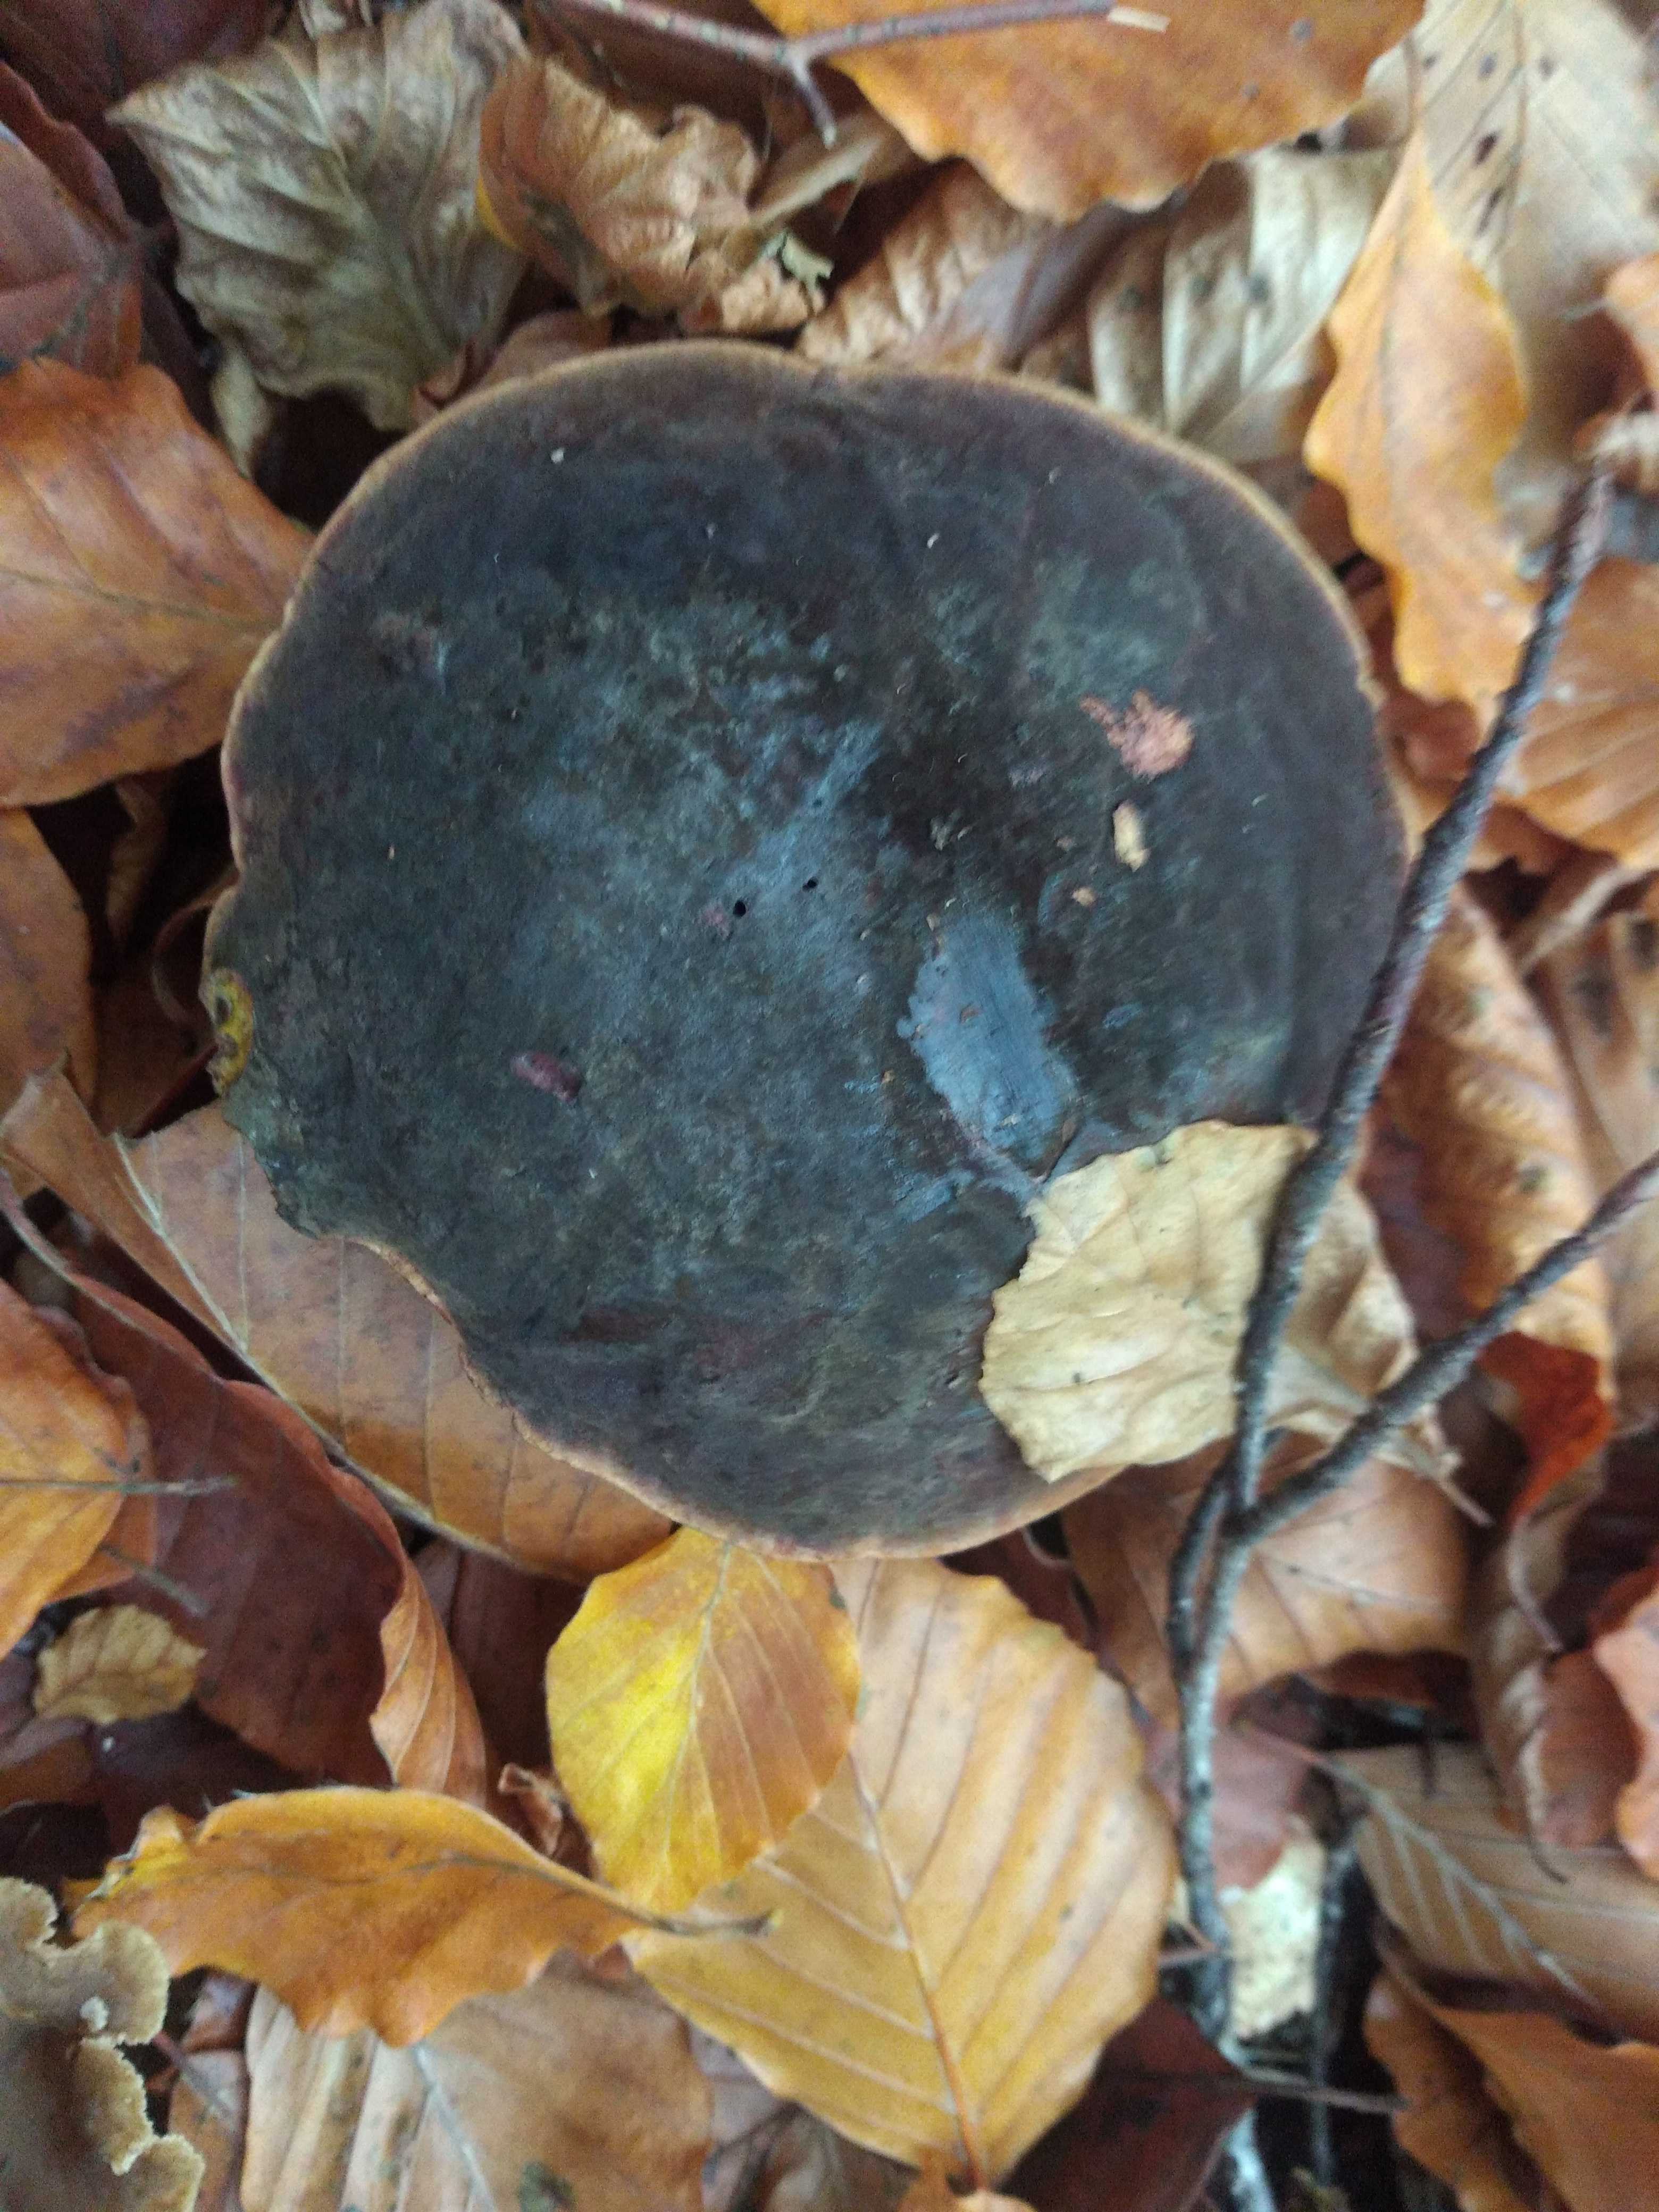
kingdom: Fungi
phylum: Basidiomycota
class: Agaricomycetes
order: Boletales
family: Boletaceae
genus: Neoboletus
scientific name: Neoboletus erythropus
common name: punktstokket indigorørhat
